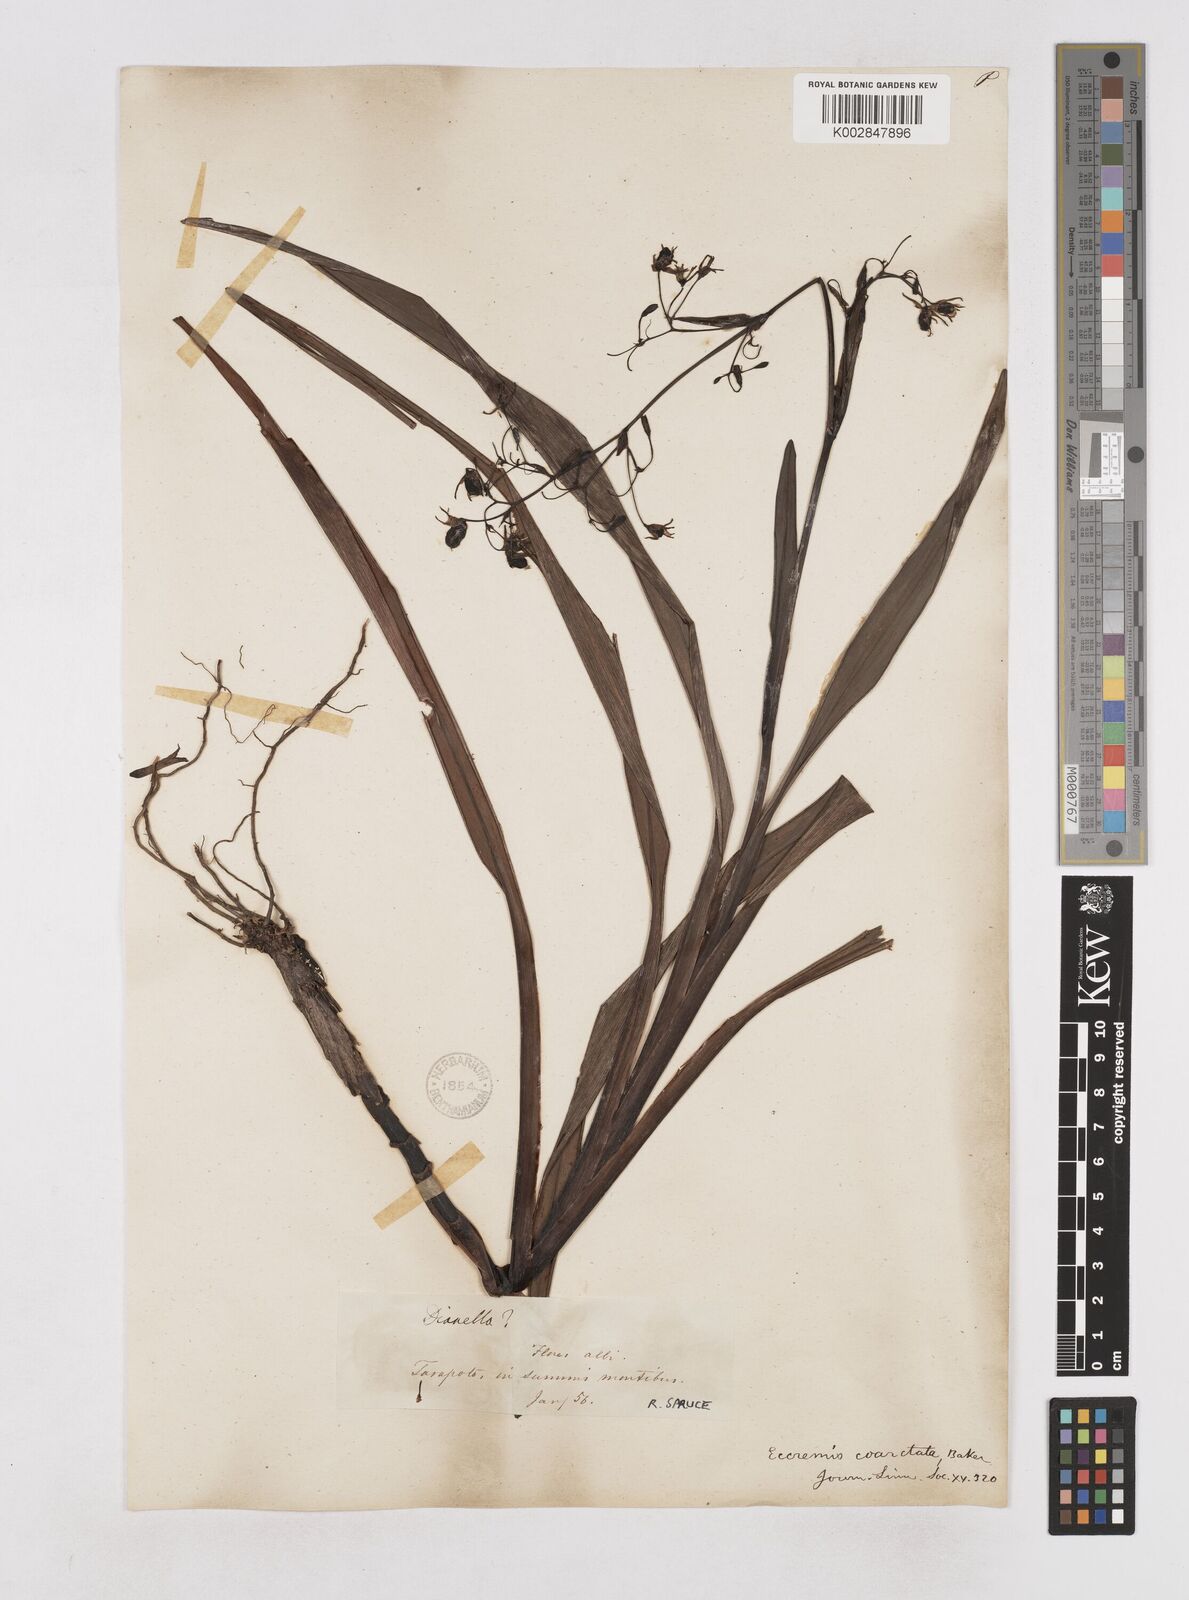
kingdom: Plantae
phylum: Tracheophyta
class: Liliopsida
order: Asparagales
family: Asphodelaceae
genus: Excremis
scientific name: Excremis coarctata
